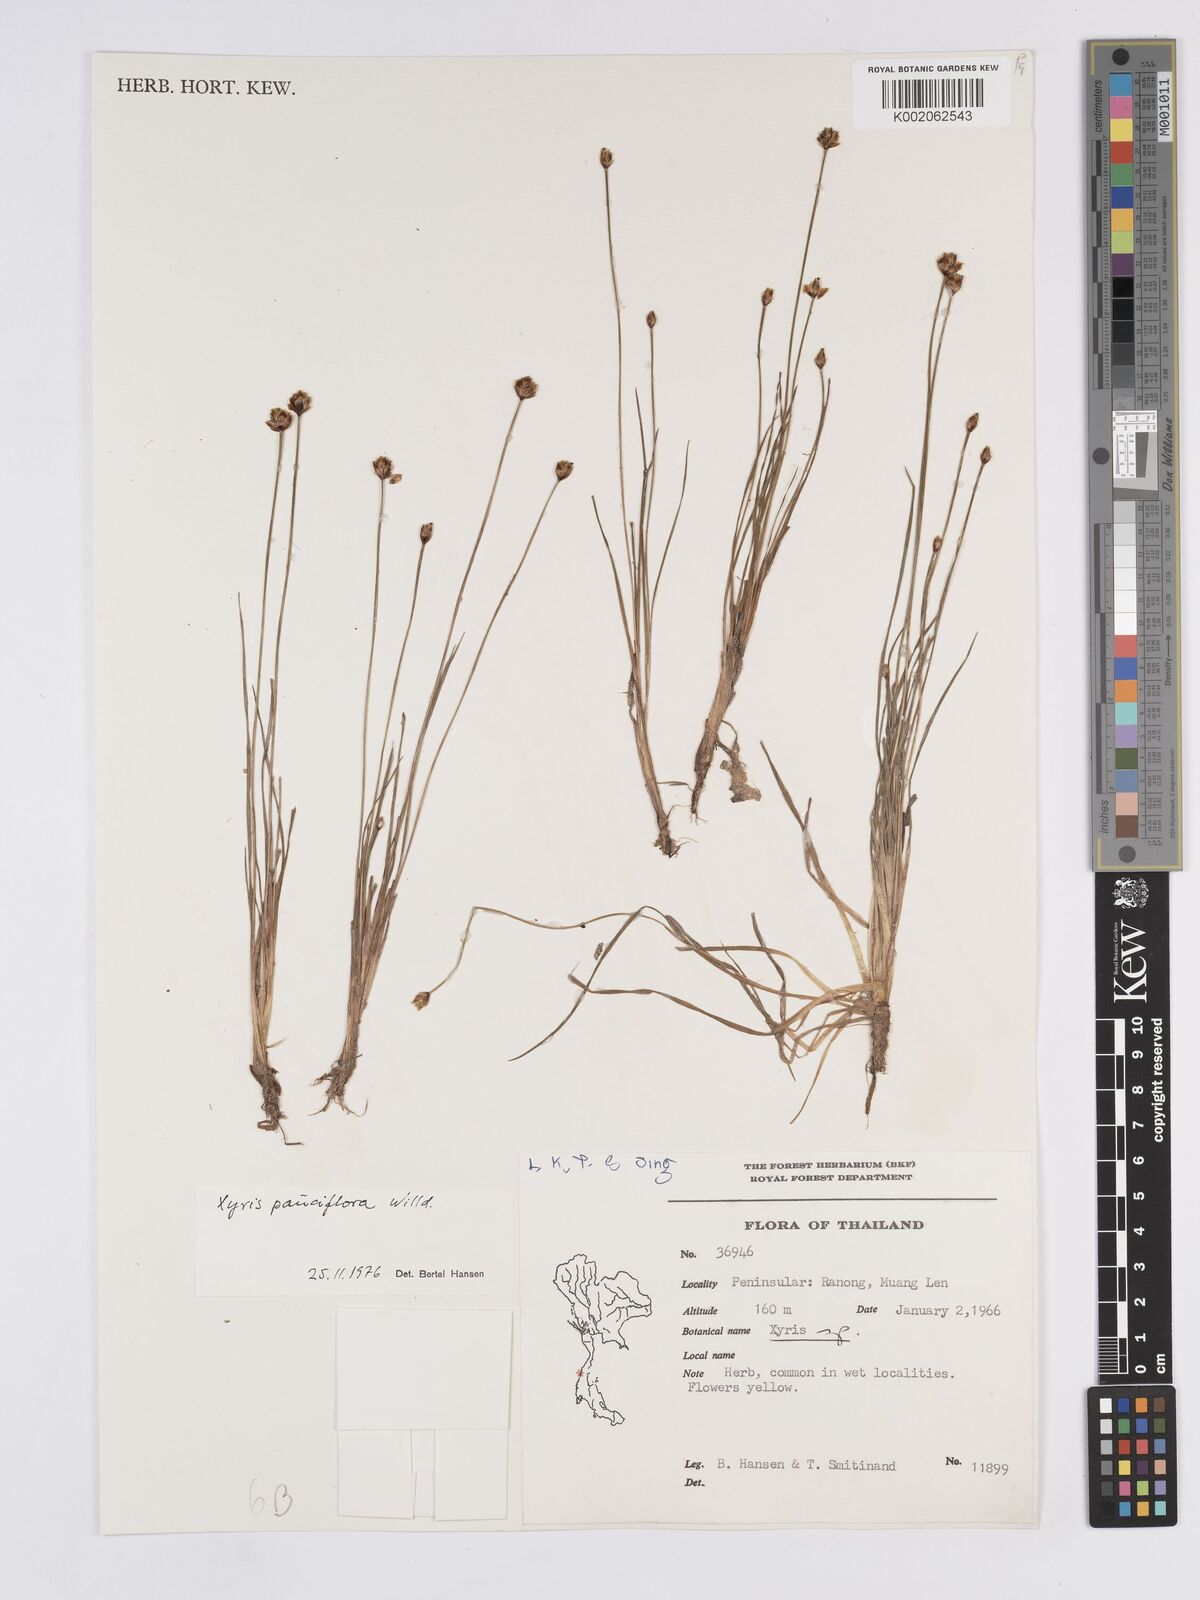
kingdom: Plantae
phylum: Tracheophyta
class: Liliopsida
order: Poales
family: Xyridaceae
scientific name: Xyridaceae
